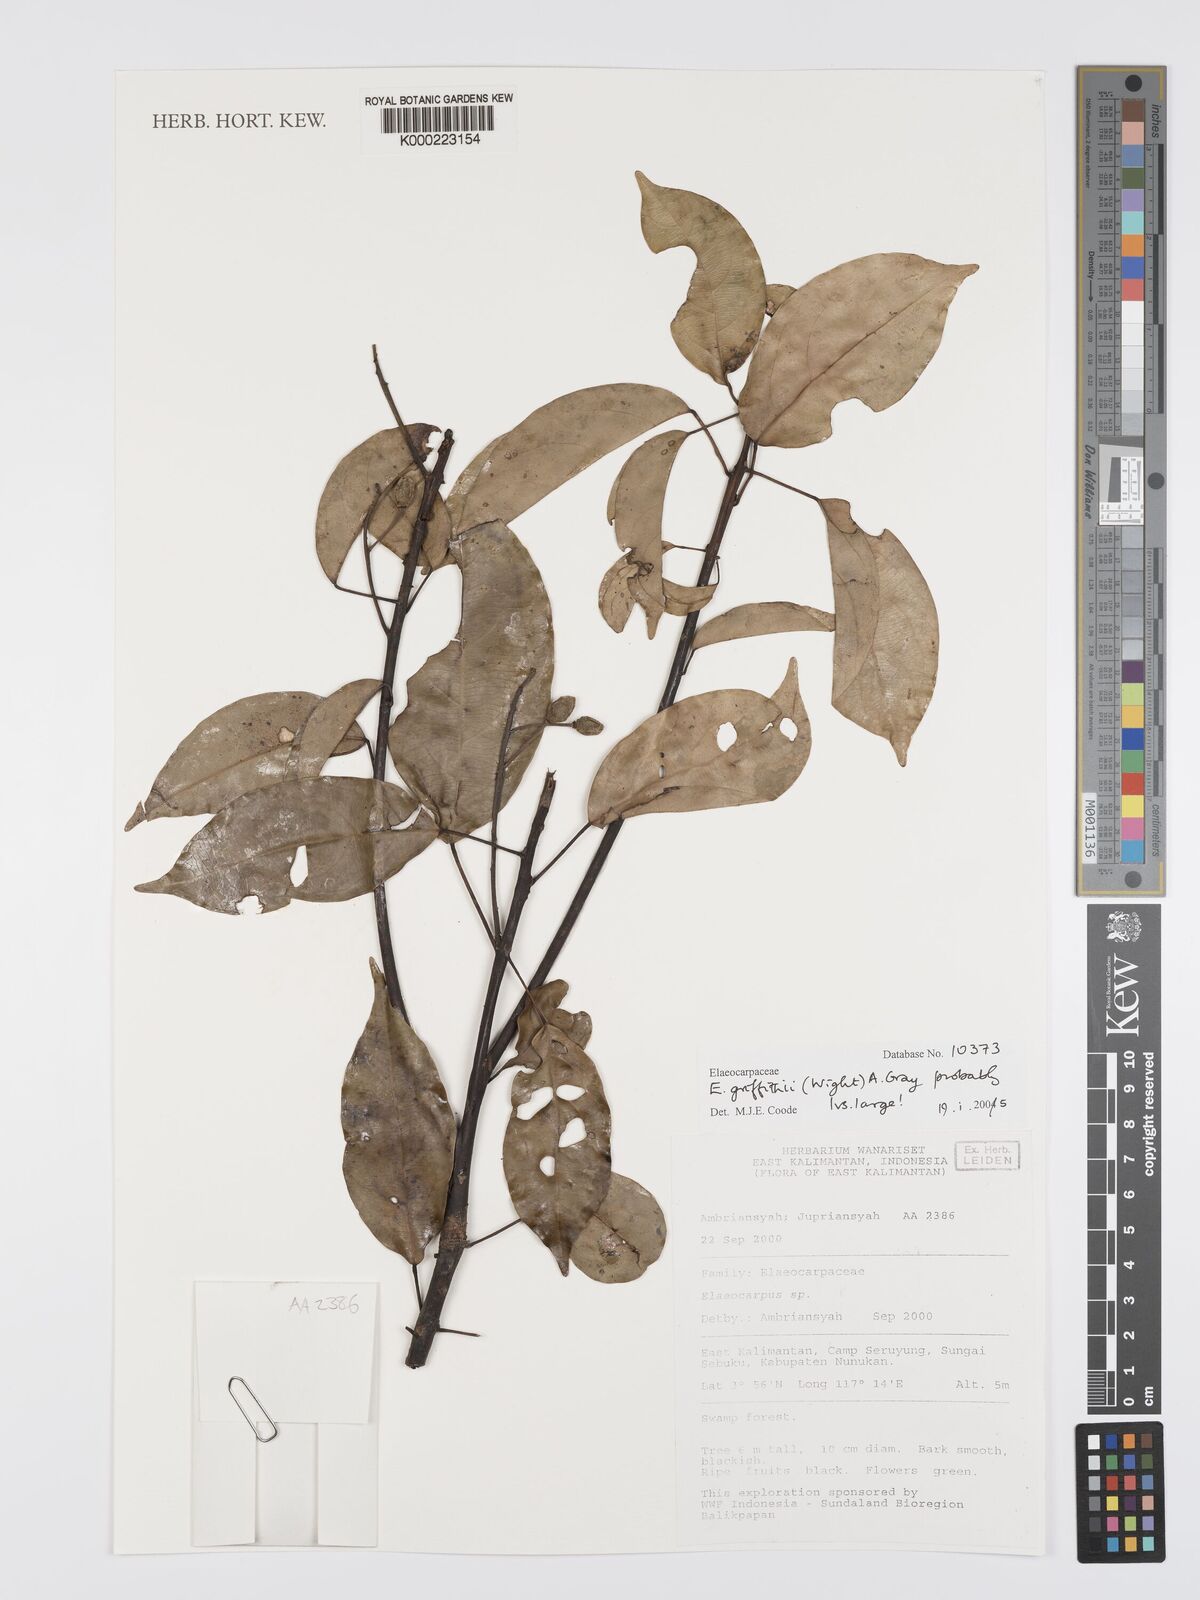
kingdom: Plantae
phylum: Tracheophyta
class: Magnoliopsida
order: Oxalidales
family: Elaeocarpaceae
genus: Elaeocarpus
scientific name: Elaeocarpus griffithii
